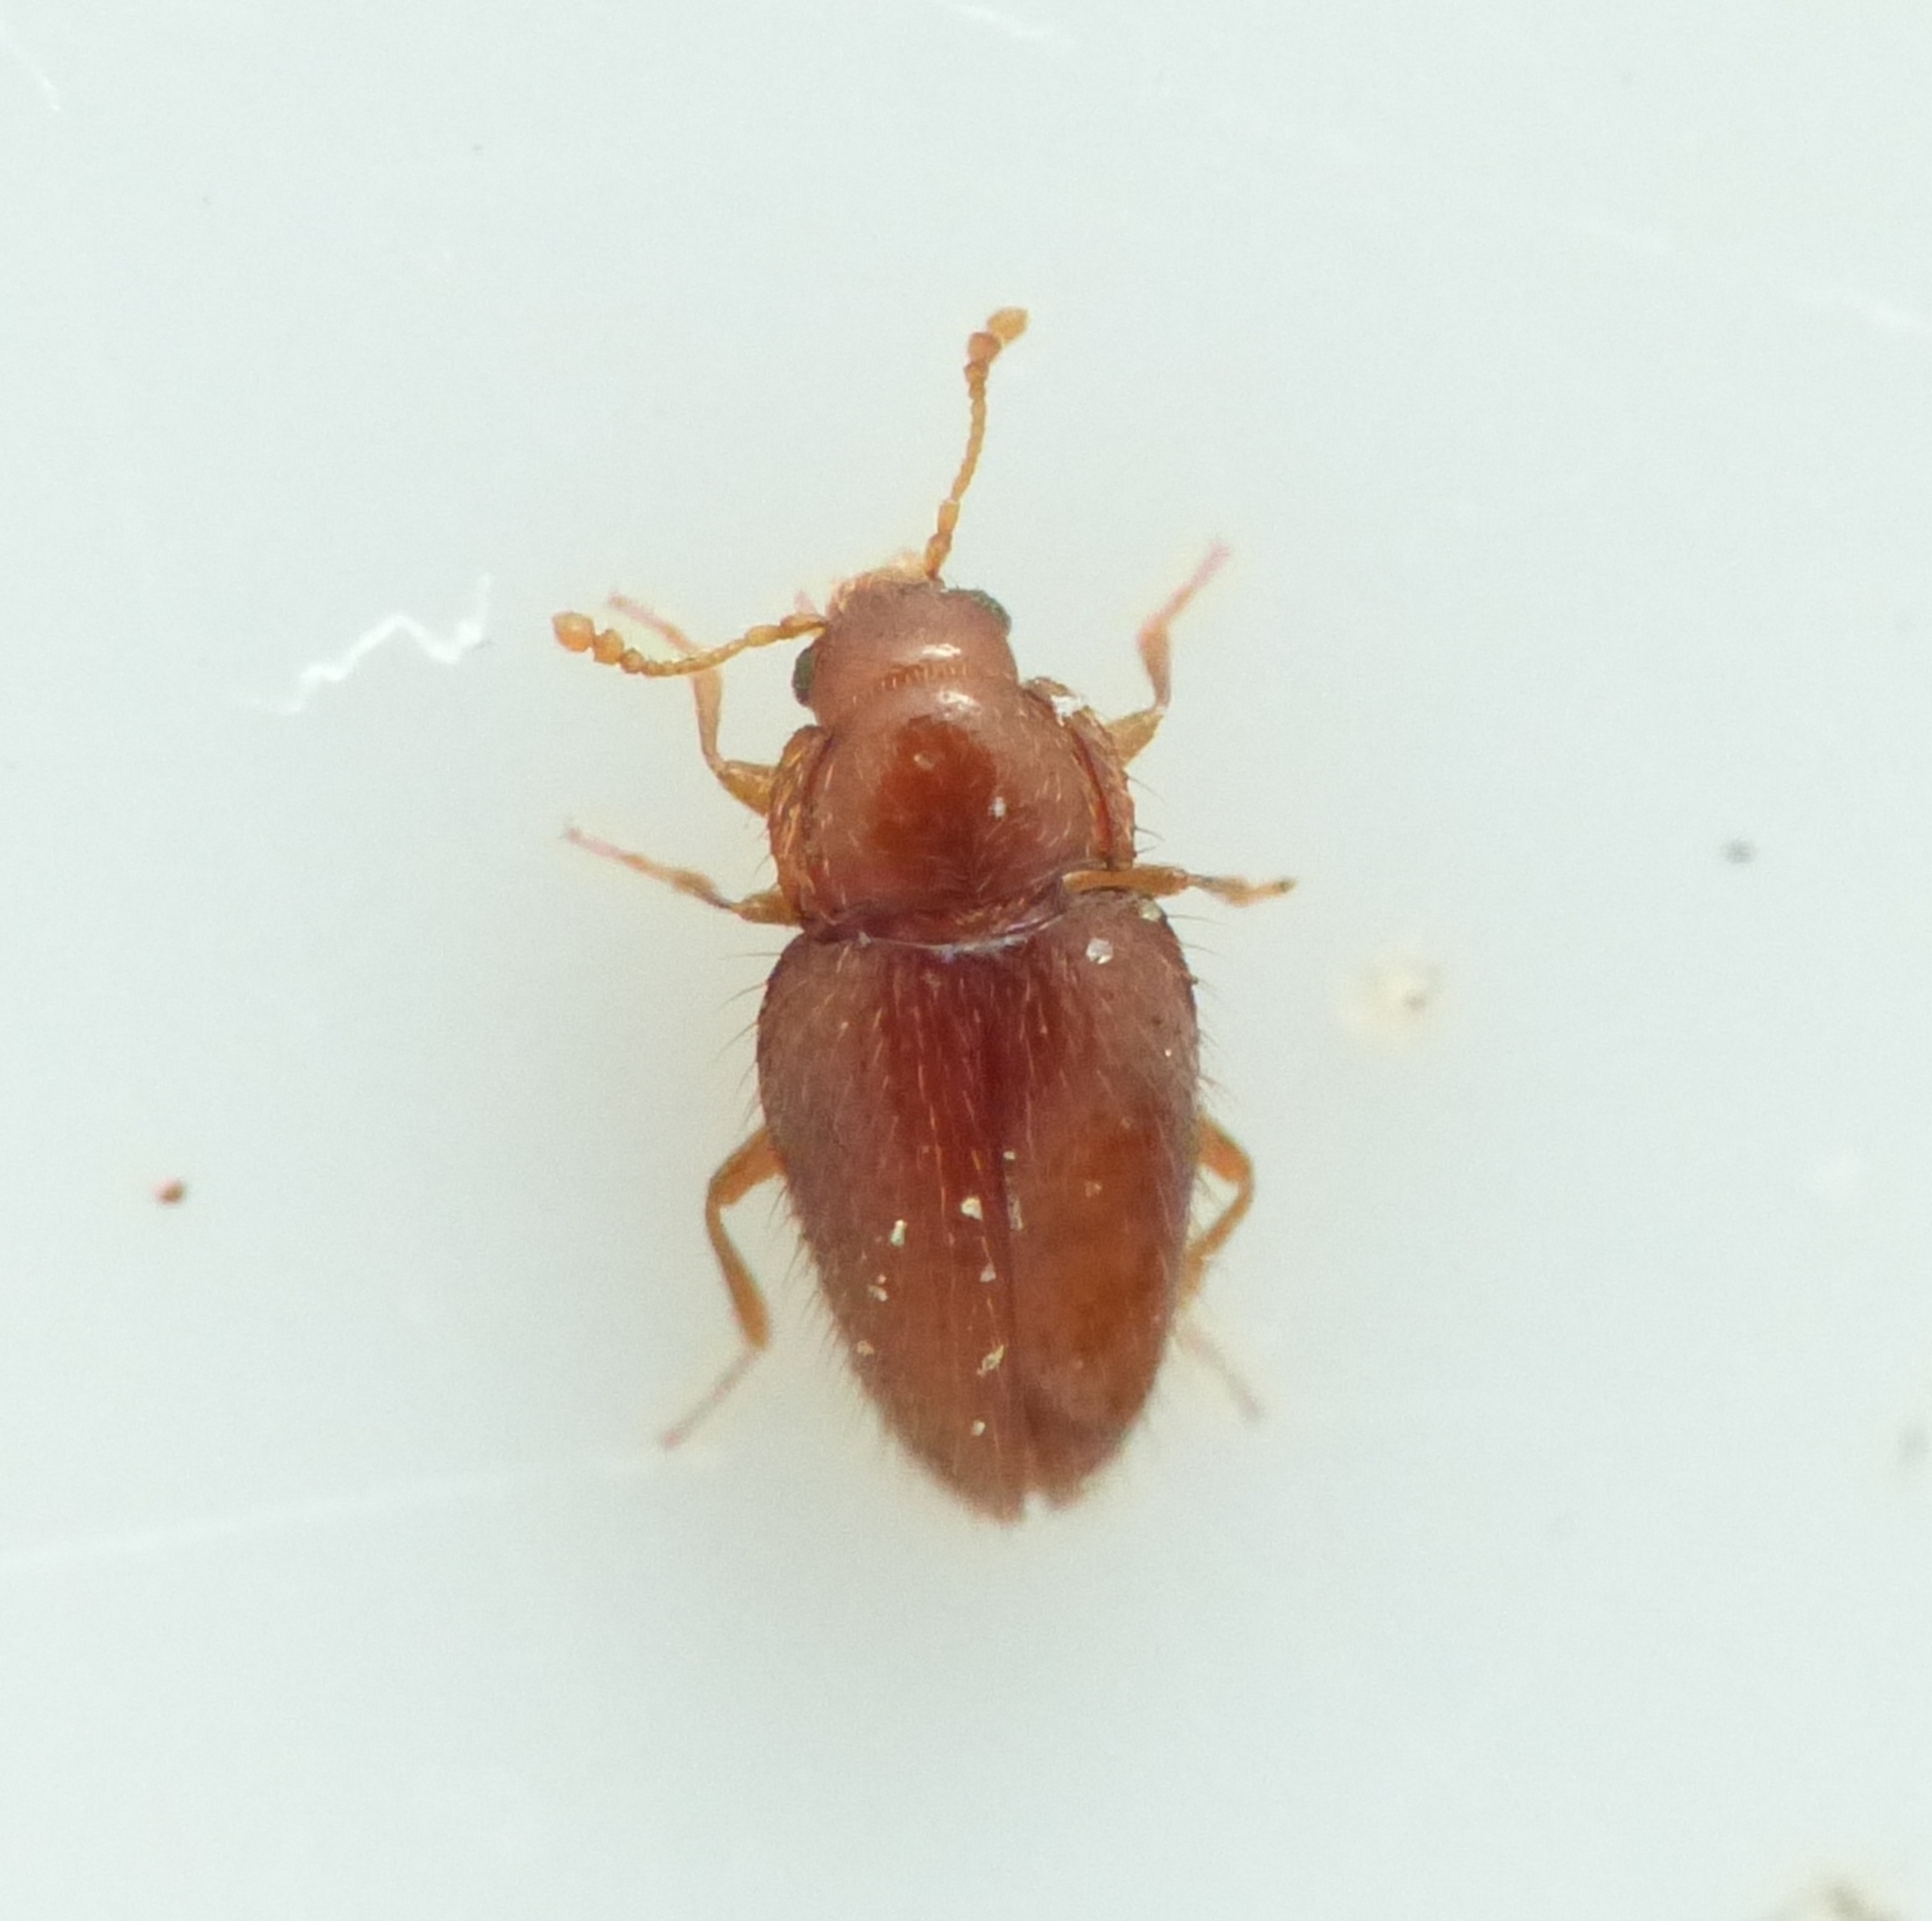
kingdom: Animalia
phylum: Arthropoda
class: Insecta
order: Coleoptera
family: Mycetaeidae
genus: Mycetaea
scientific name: Mycetaea subterranea
